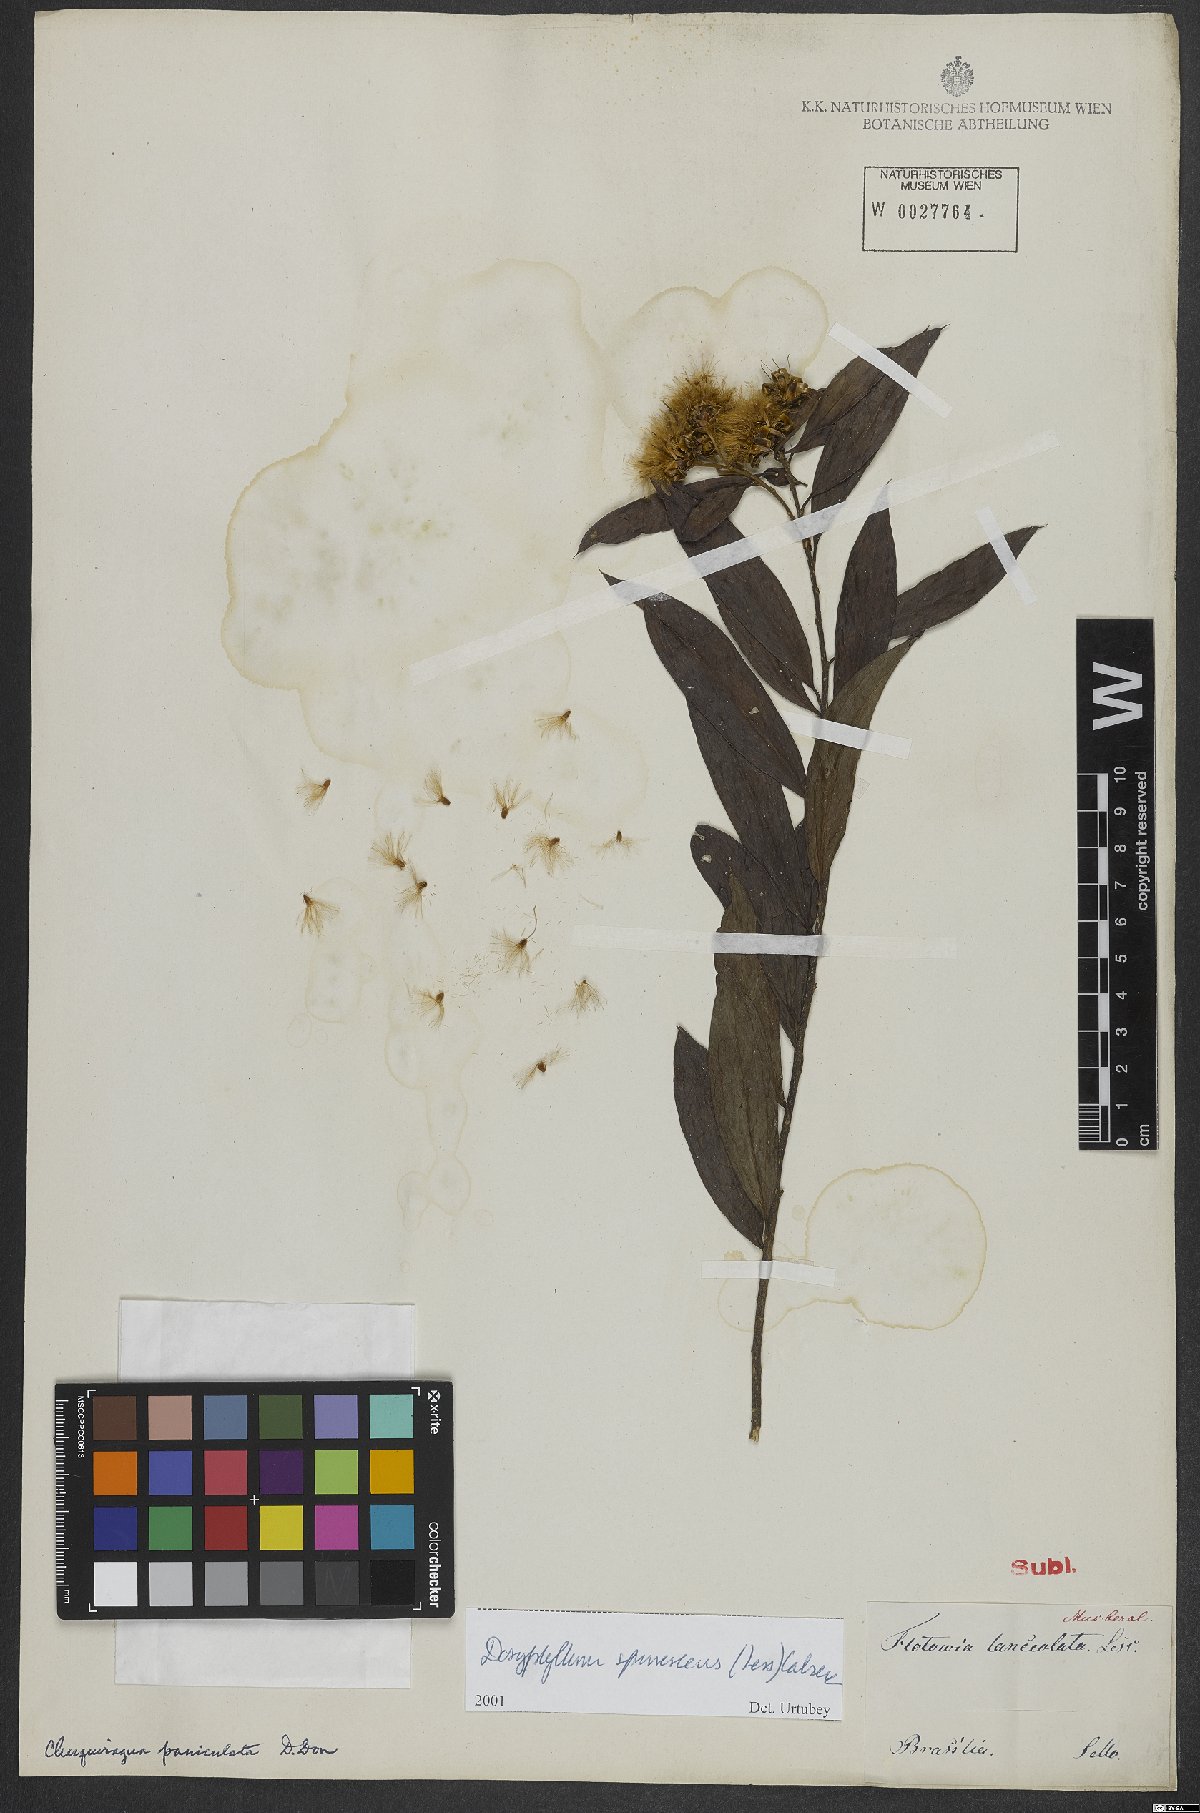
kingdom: Plantae
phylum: Tracheophyta
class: Magnoliopsida
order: Asterales
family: Asteraceae
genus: Dasyphyllum
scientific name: Dasyphyllum spinescens
